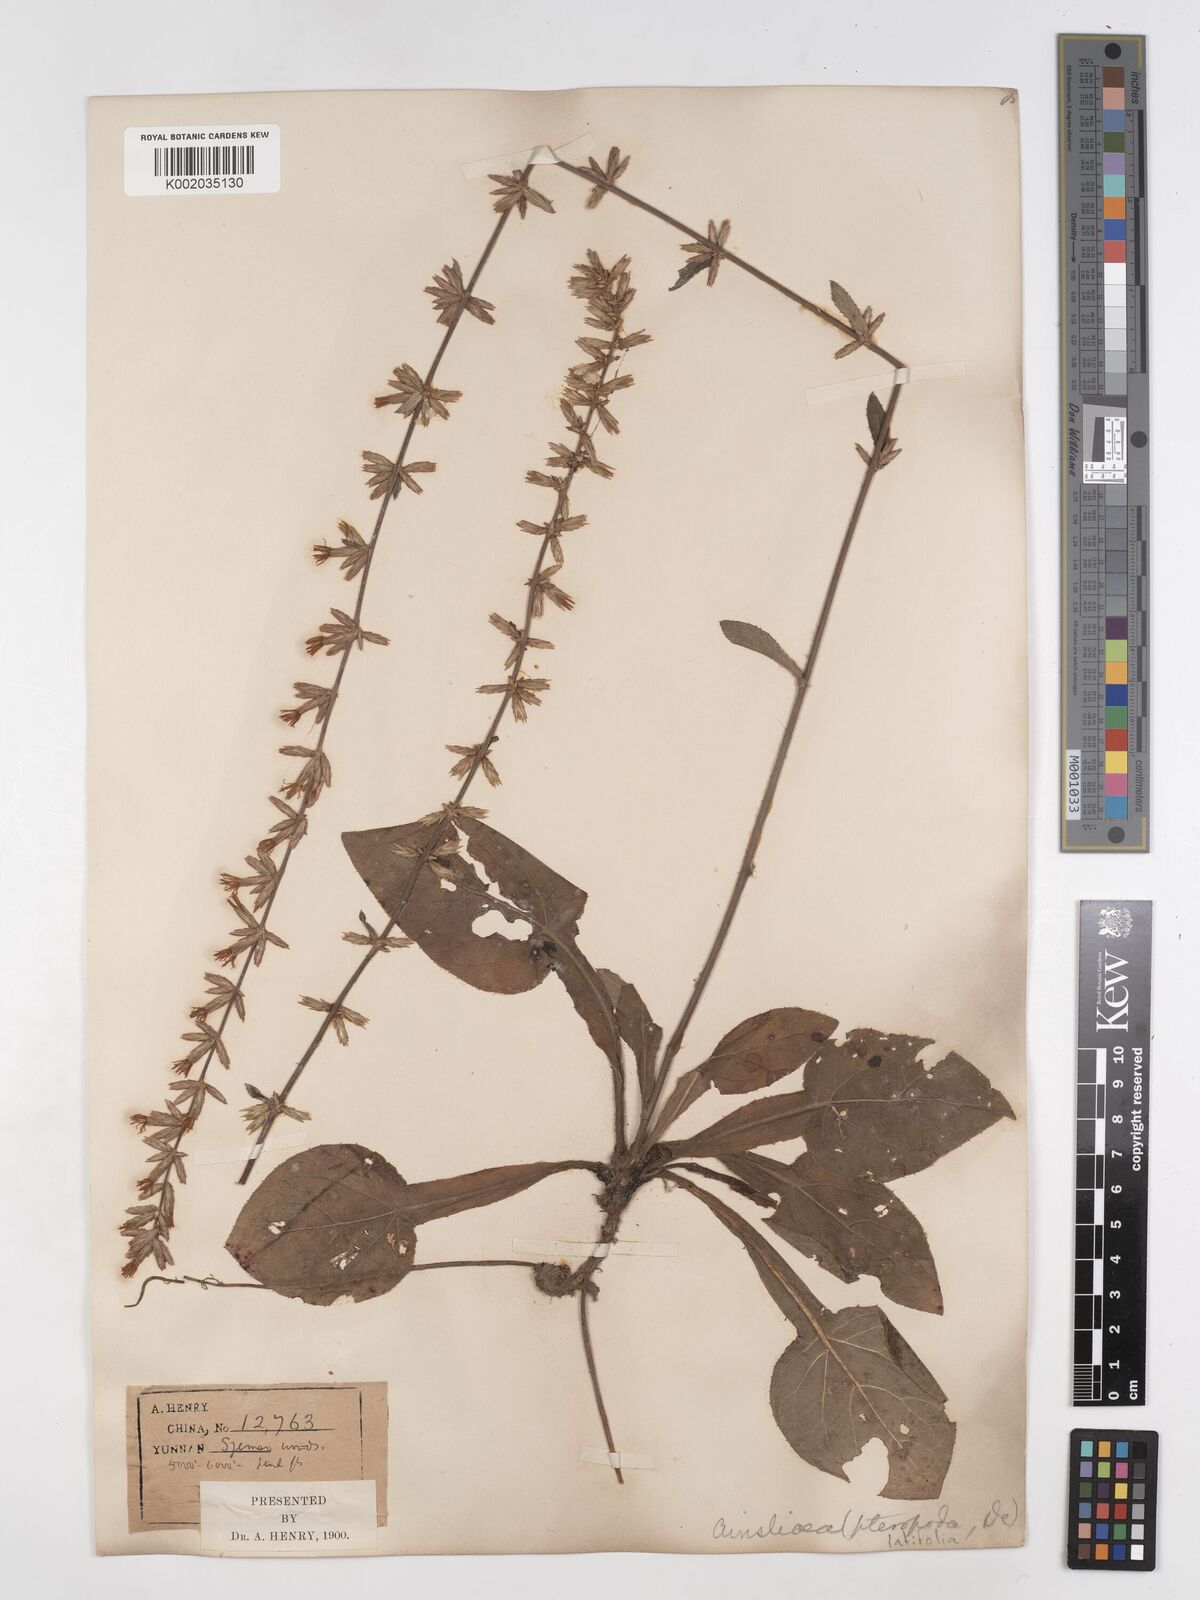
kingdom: Plantae
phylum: Tracheophyta
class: Magnoliopsida
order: Asterales
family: Asteraceae
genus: Ainsliaea
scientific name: Ainsliaea latifolia
